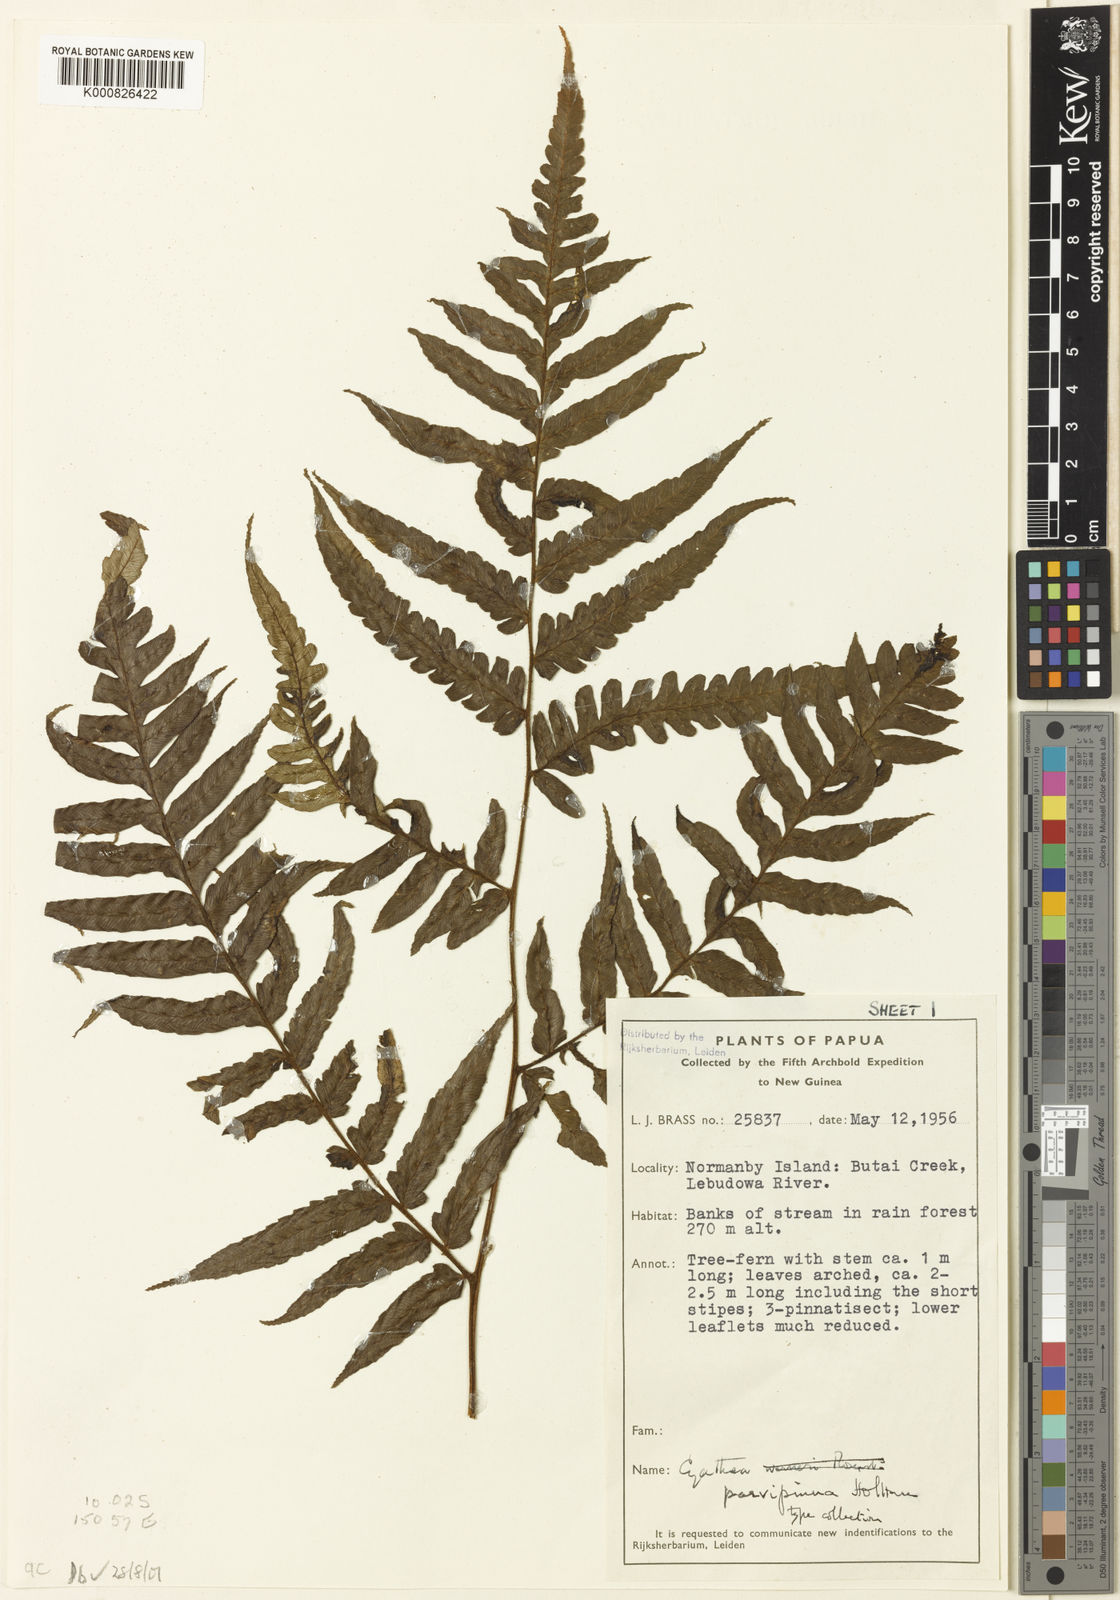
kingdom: Plantae
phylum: Tracheophyta
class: Polypodiopsida
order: Cyatheales
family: Cyatheaceae
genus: Sphaeropteris
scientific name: Sphaeropteris parvipinna
